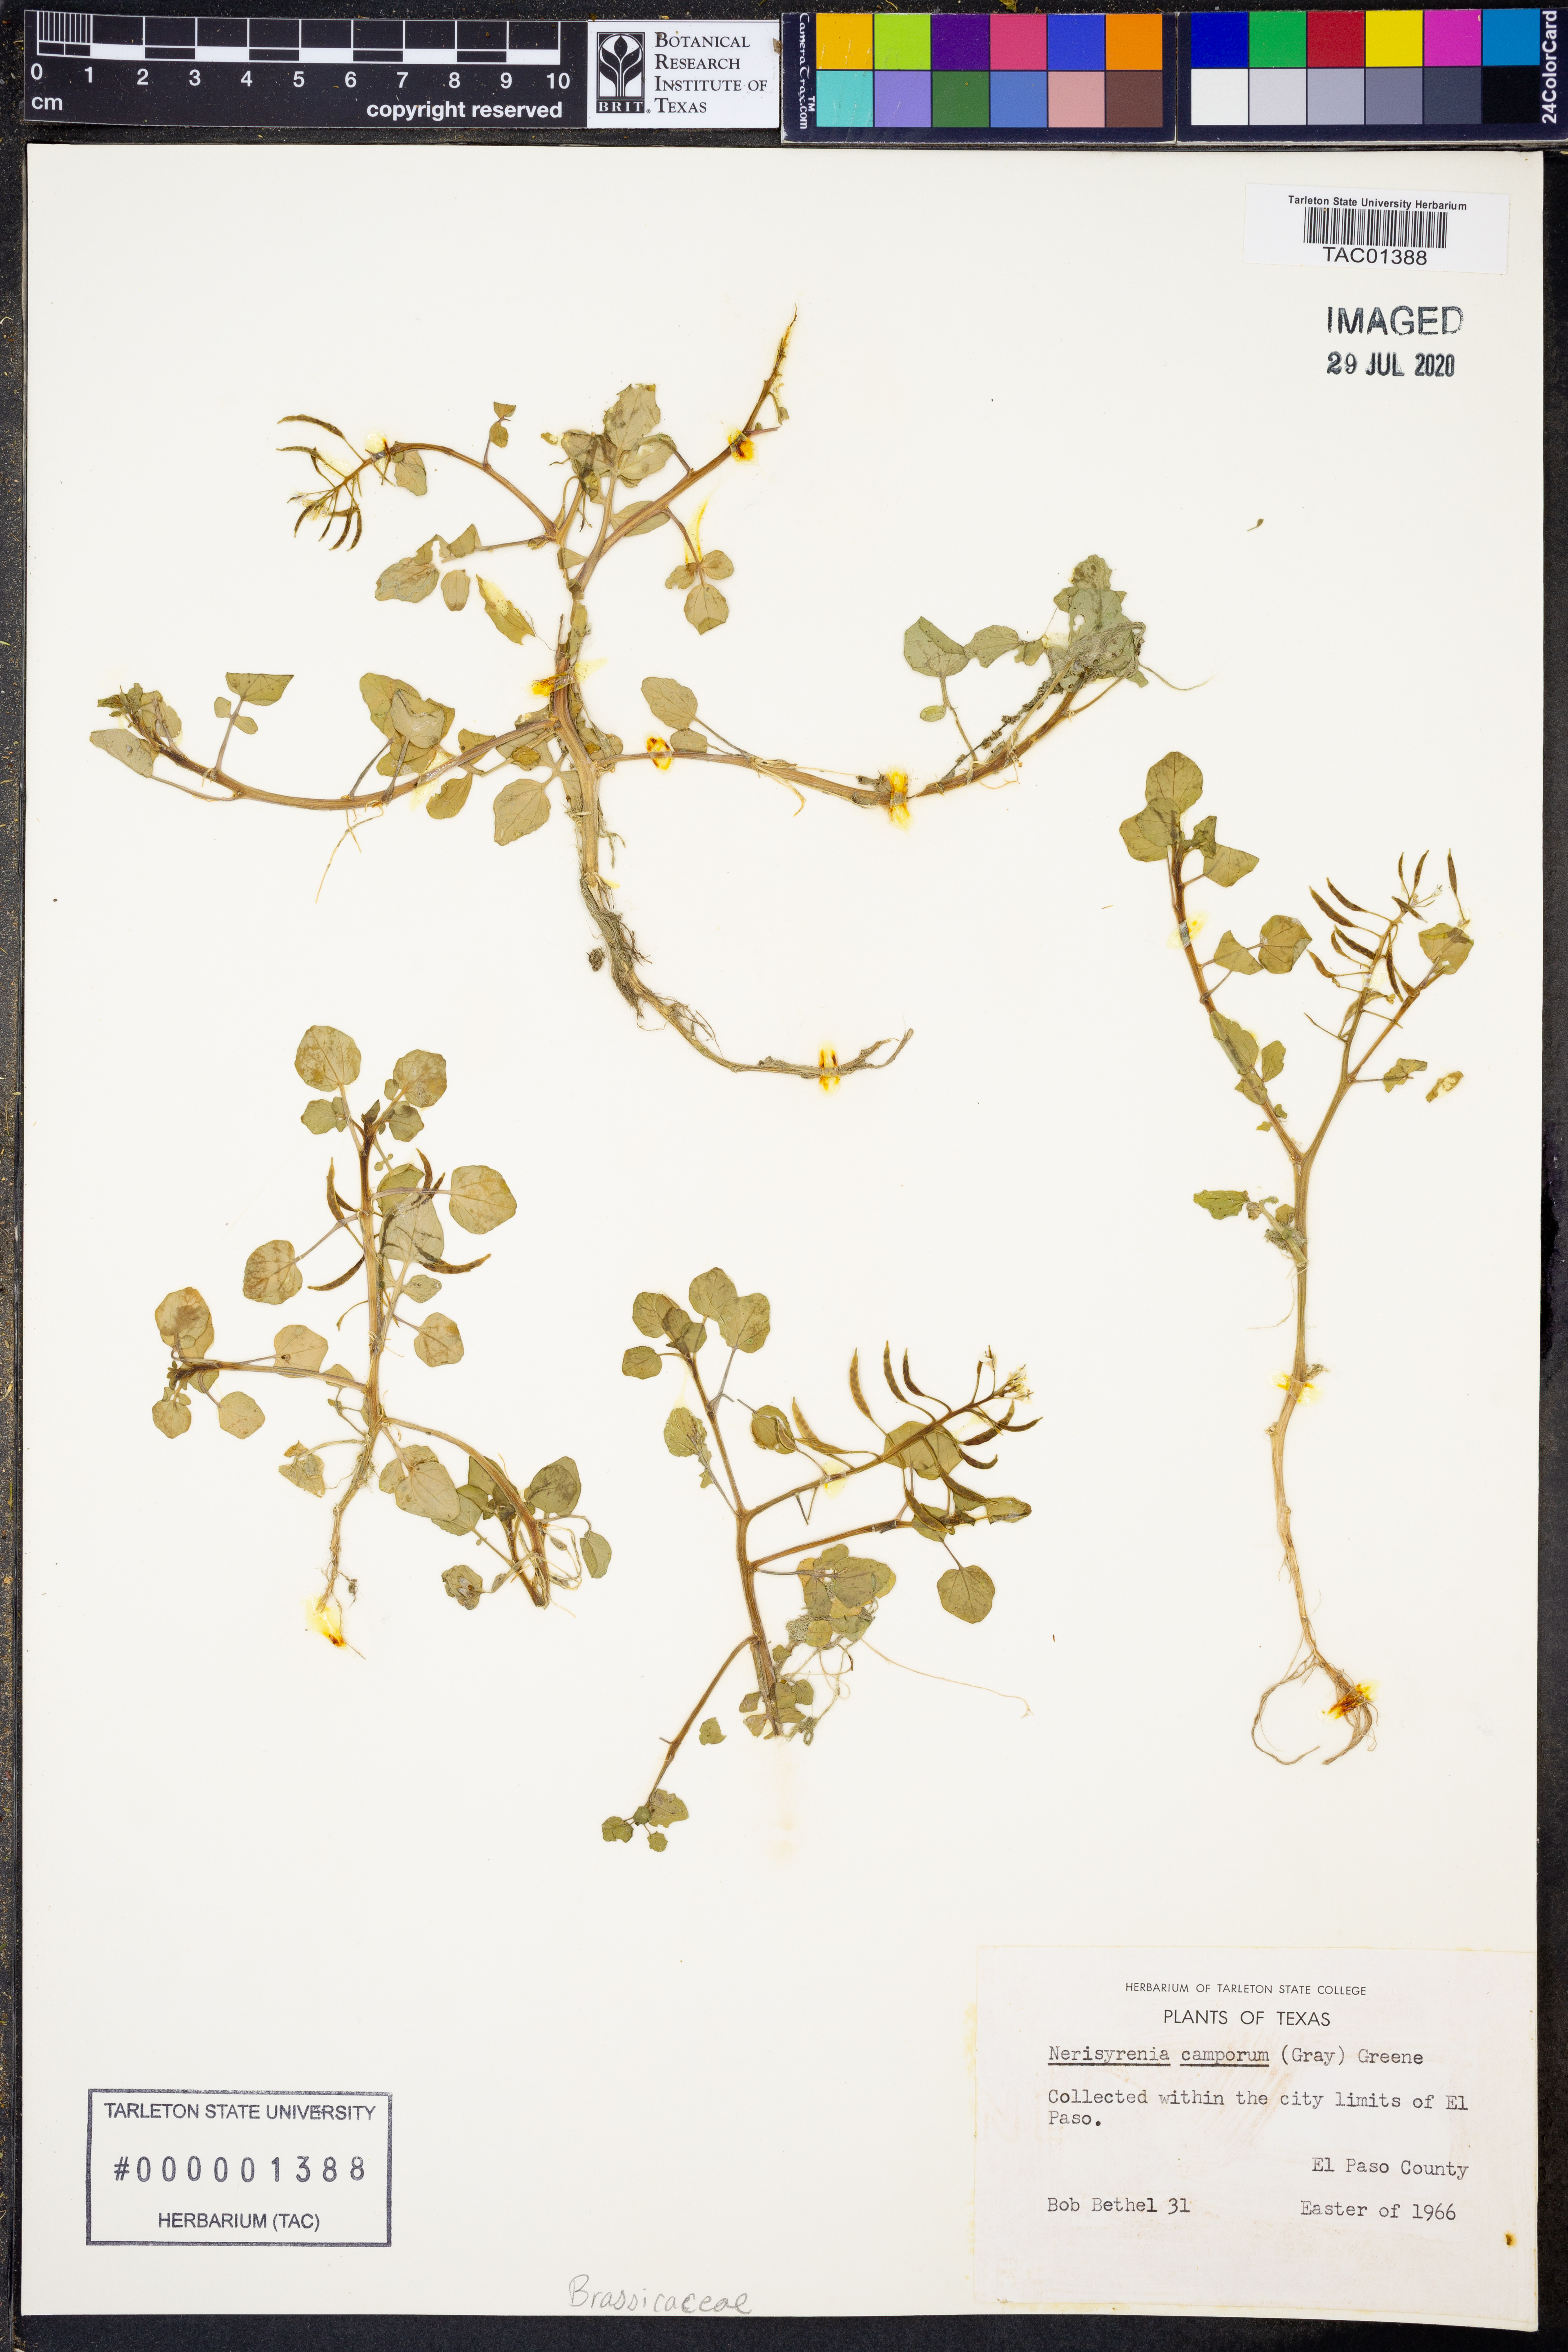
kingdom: Plantae
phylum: Tracheophyta
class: Magnoliopsida
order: Brassicales
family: Brassicaceae
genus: Nerisyrenia
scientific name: Nerisyrenia camporum
